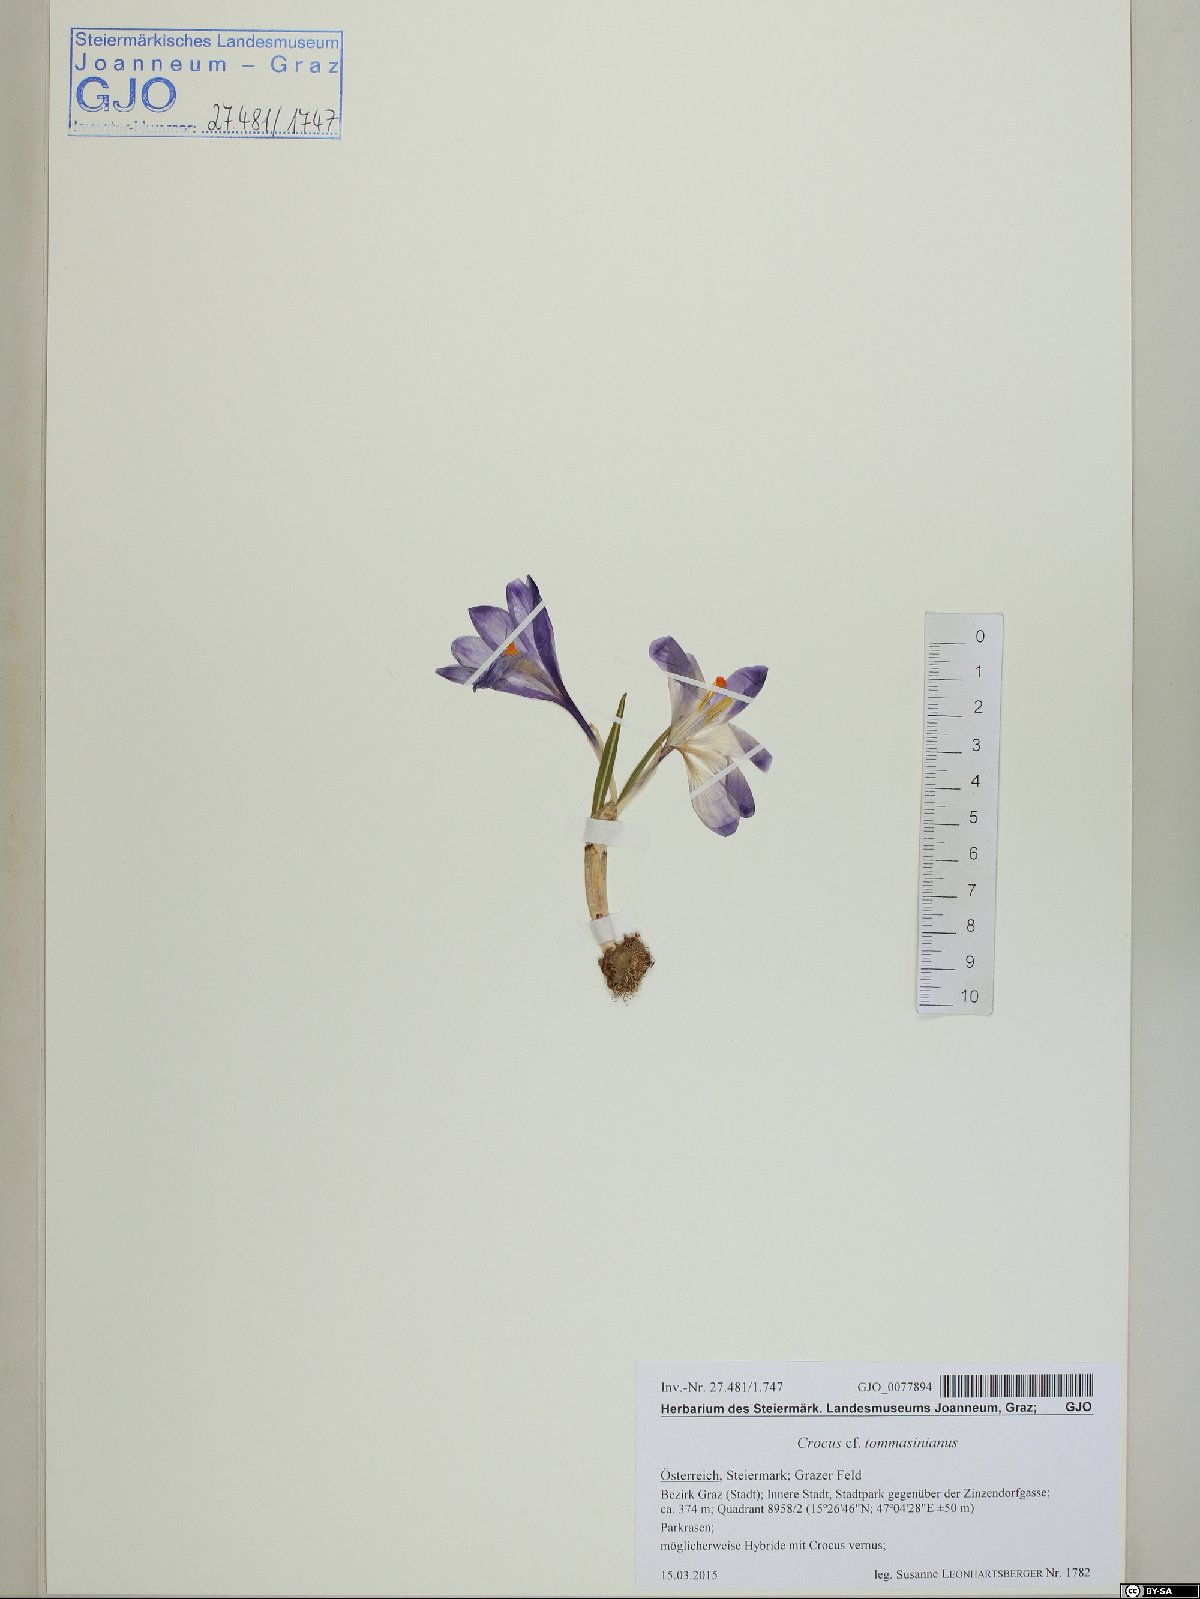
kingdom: Plantae
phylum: Tracheophyta
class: Liliopsida
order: Asparagales
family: Iridaceae
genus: Crocus
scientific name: Crocus tommasinianus
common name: Early crocus
